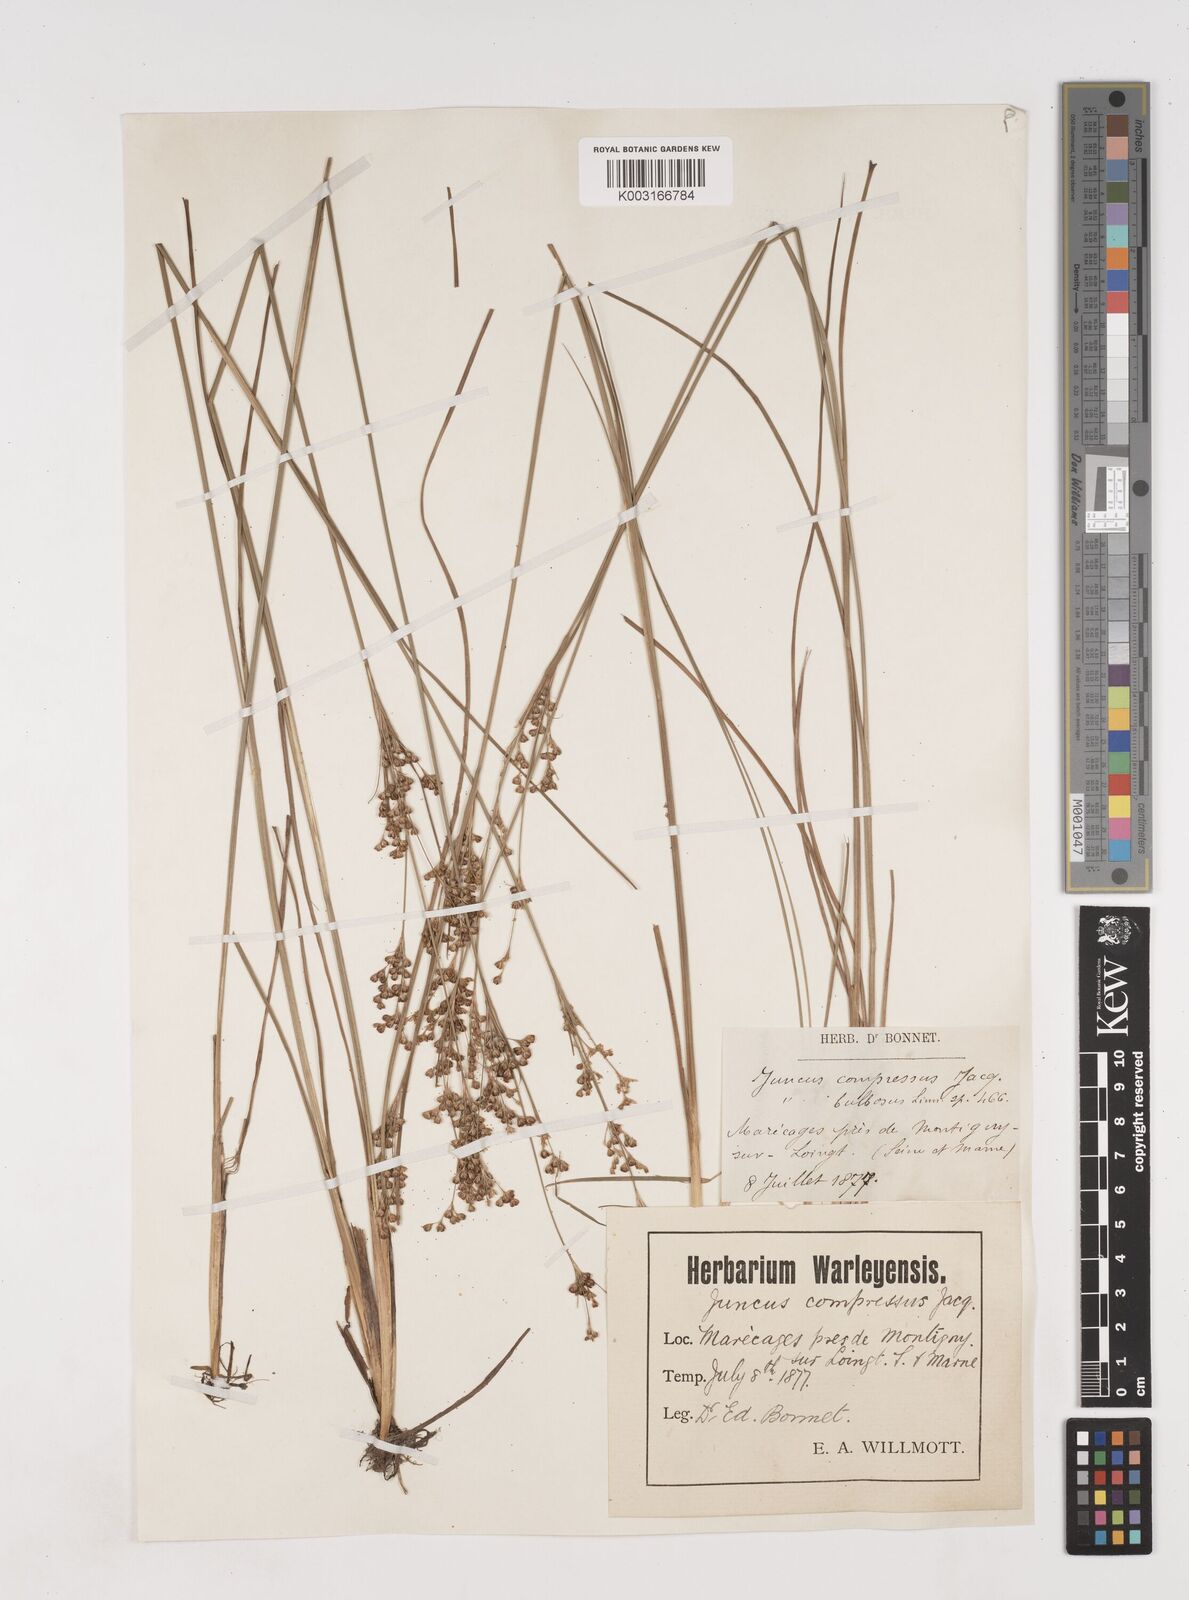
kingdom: Plantae
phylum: Tracheophyta
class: Liliopsida
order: Poales
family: Juncaceae
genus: Juncus
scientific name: Juncus compressus
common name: Round-fruited rush
